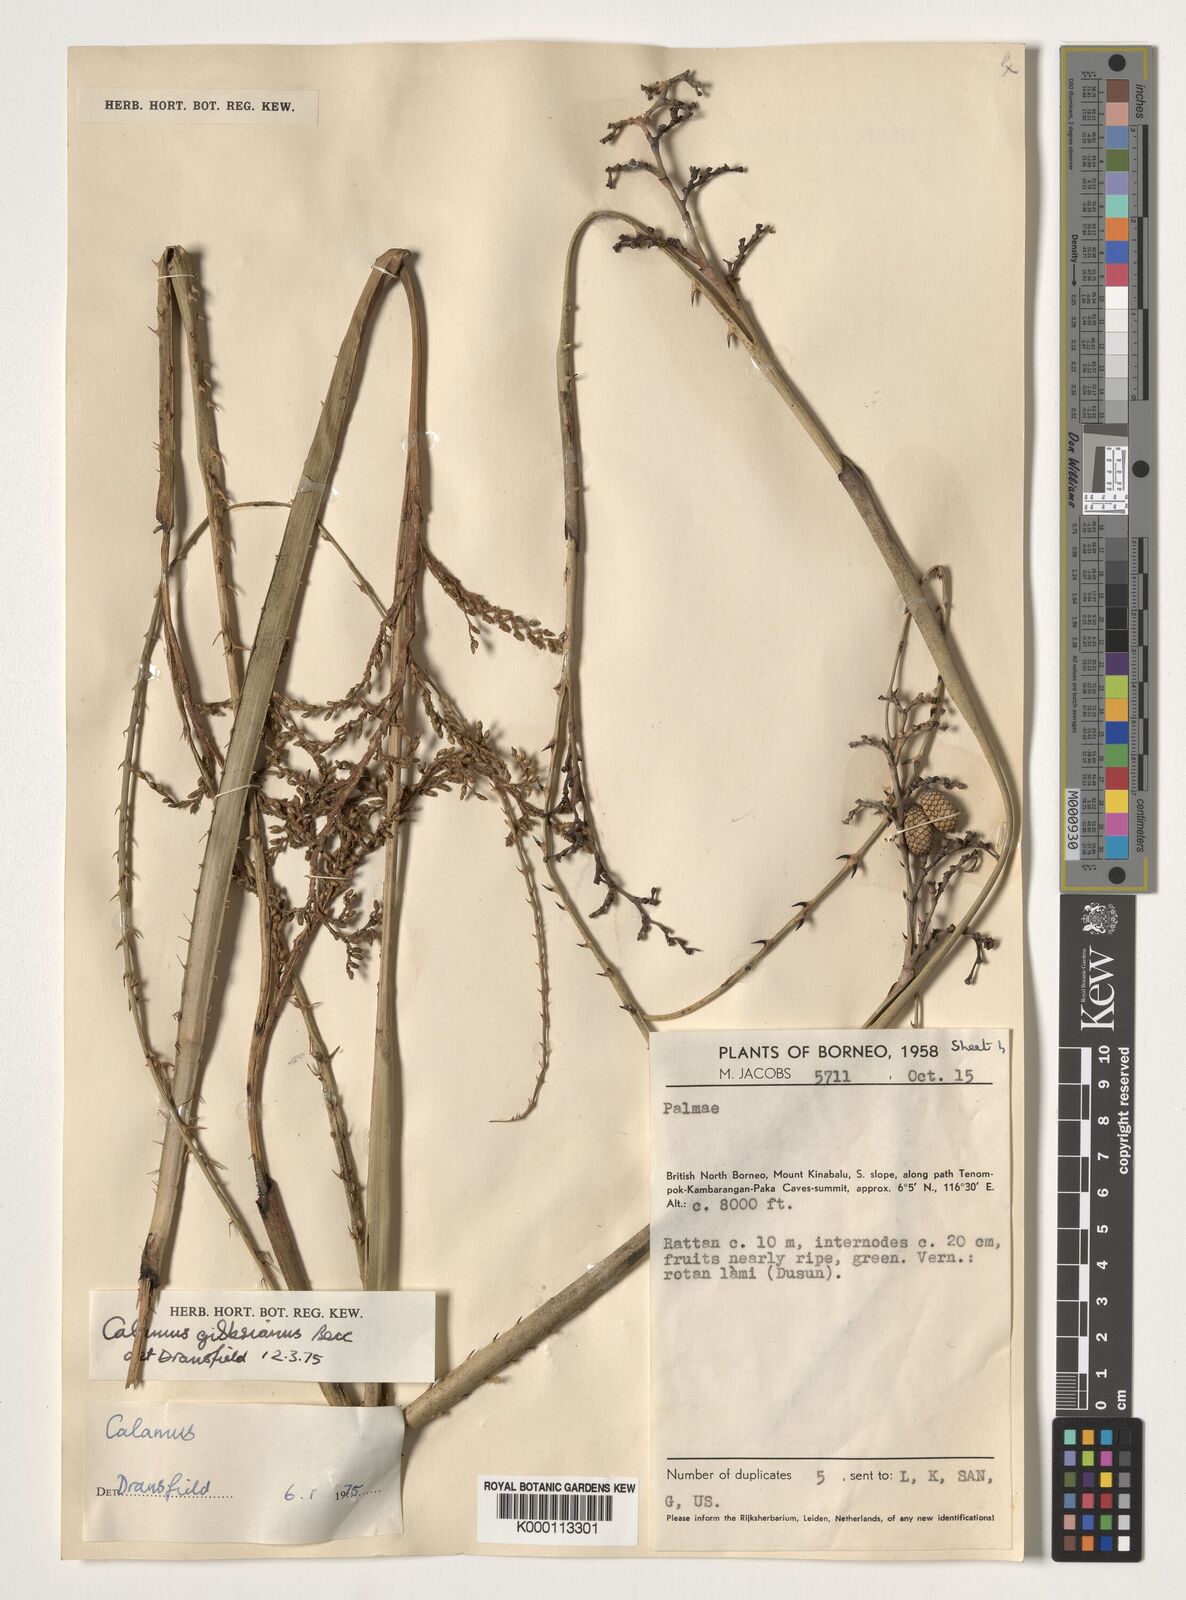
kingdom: Plantae
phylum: Tracheophyta
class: Liliopsida
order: Arecales
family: Arecaceae
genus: Calamus
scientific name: Calamus gibbsianus
